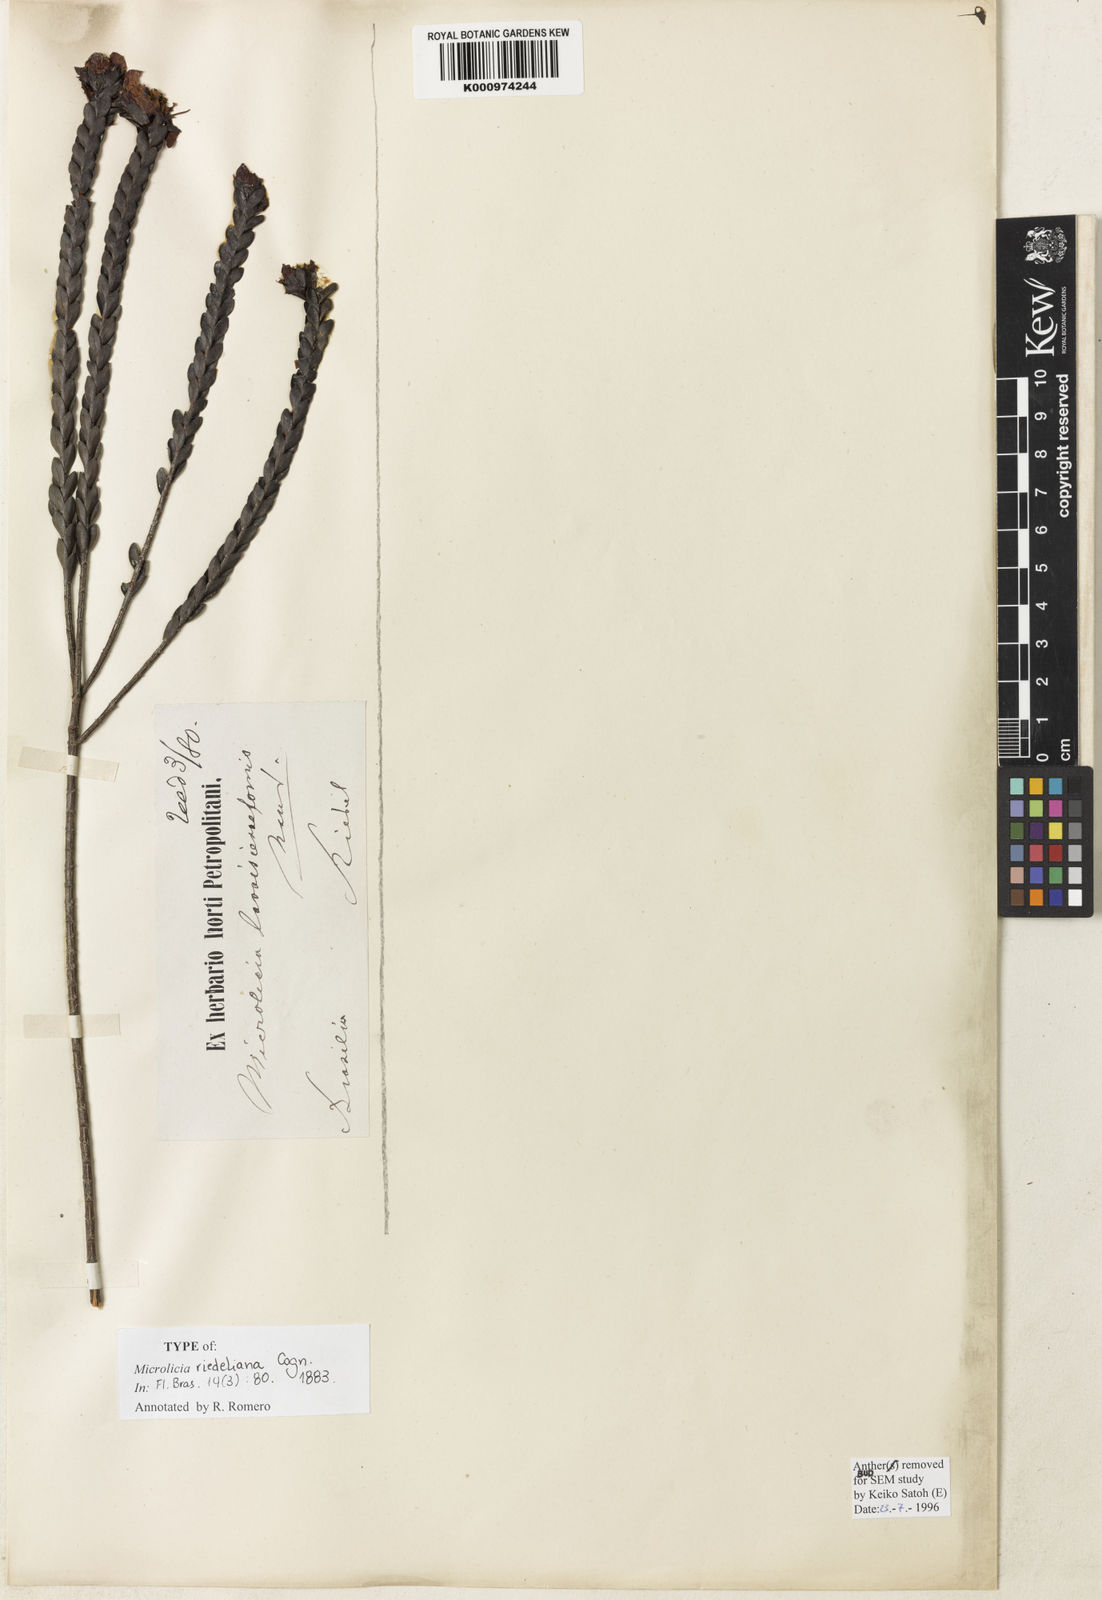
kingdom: Plantae
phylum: Tracheophyta
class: Magnoliopsida
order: Myrtales
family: Melastomataceae
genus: Microlicia
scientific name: Microlicia riedeliana
